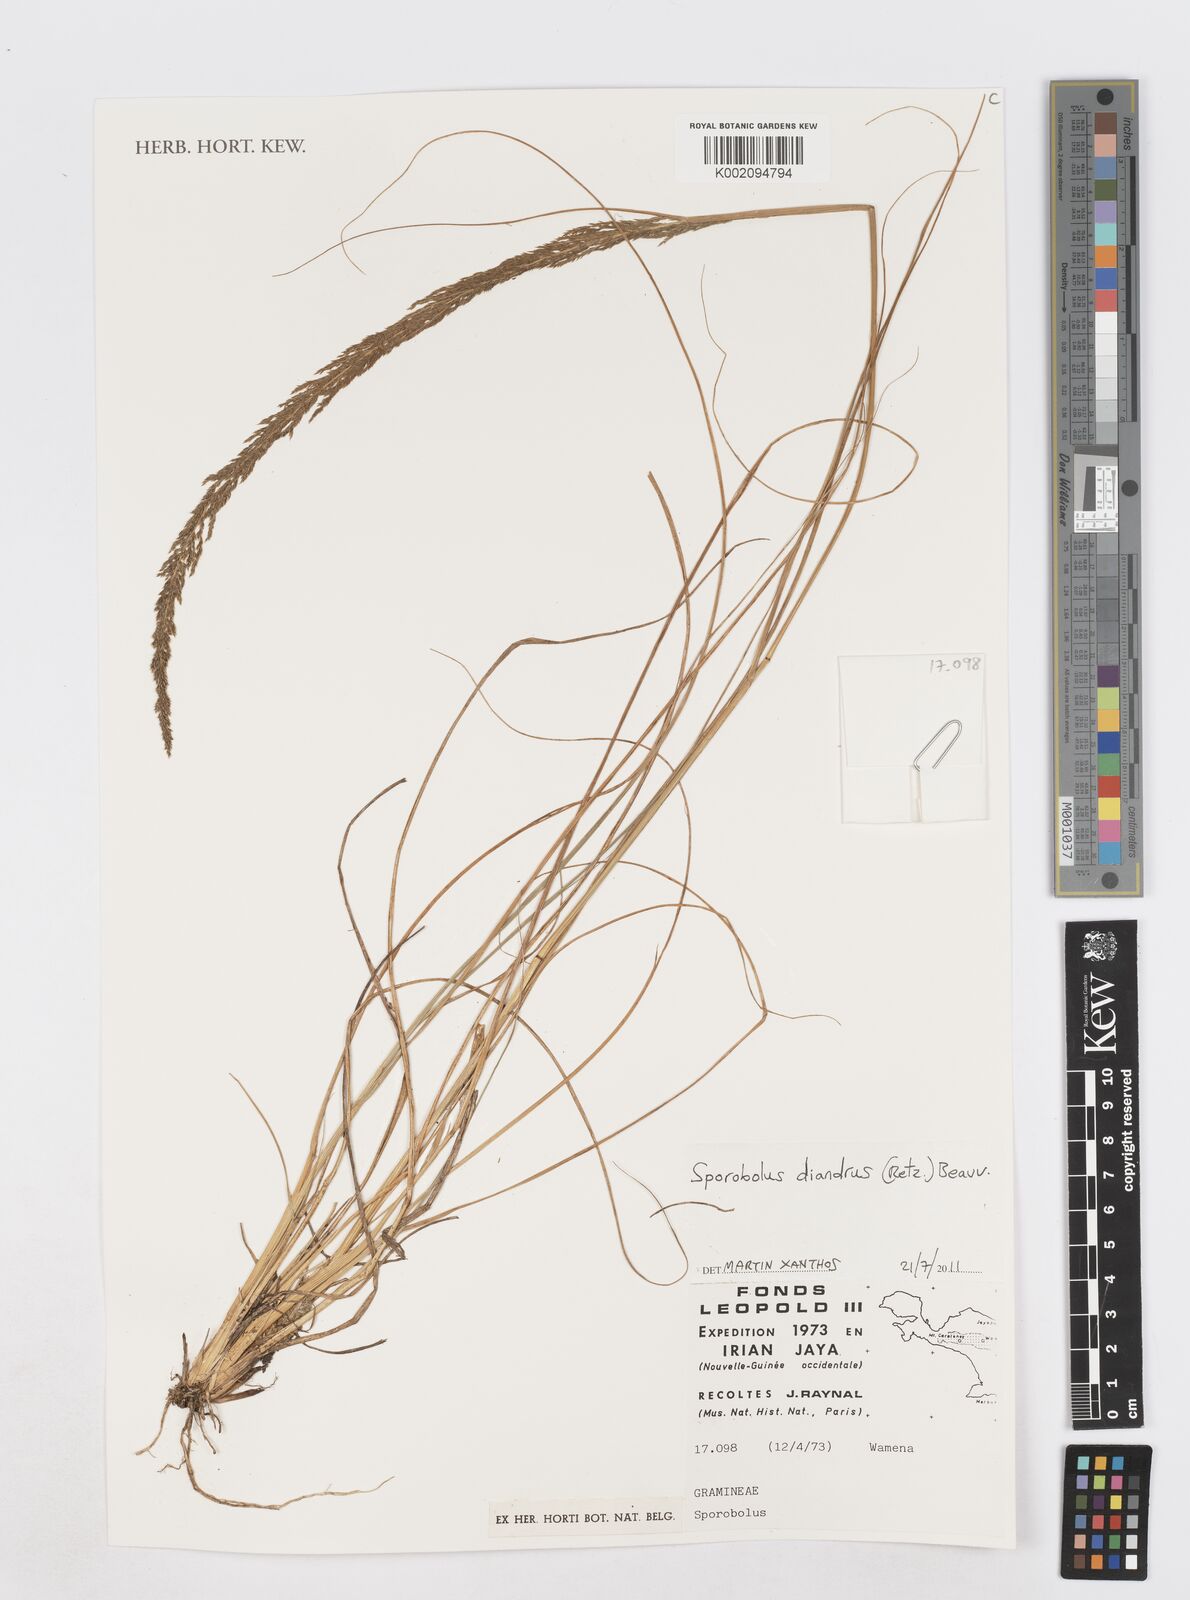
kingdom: Plantae
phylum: Tracheophyta
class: Liliopsida
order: Poales
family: Poaceae
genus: Sporobolus
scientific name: Sporobolus diandrus
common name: Tussock dropseed
